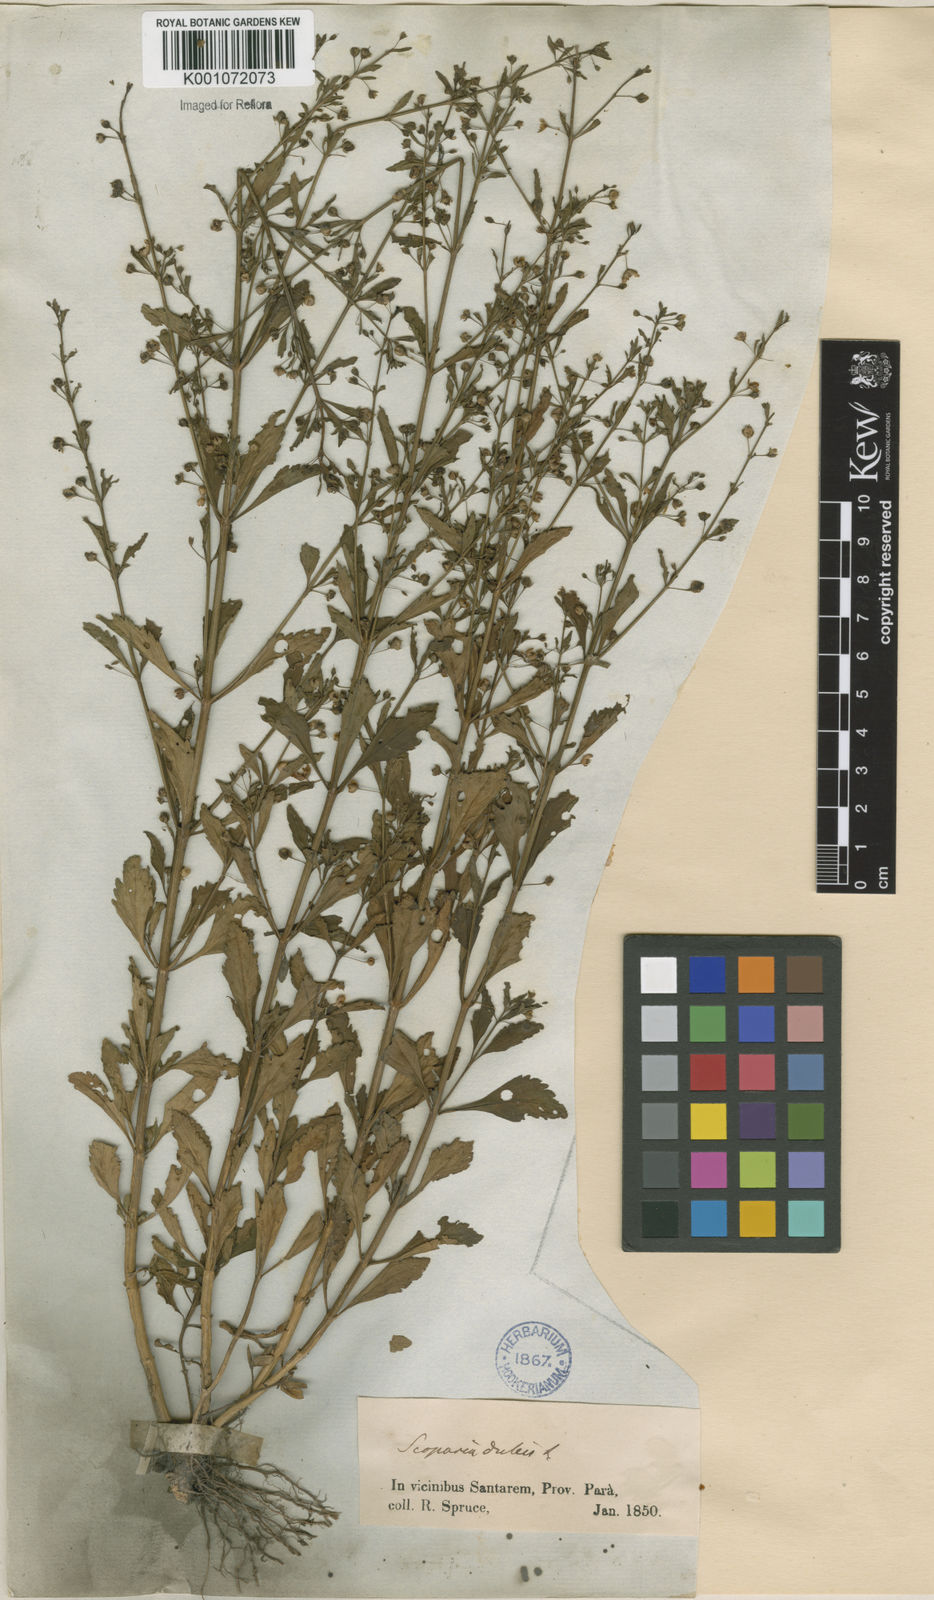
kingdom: Plantae
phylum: Tracheophyta
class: Magnoliopsida
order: Lamiales
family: Plantaginaceae
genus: Scoparia
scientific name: Scoparia dulcis
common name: Scoparia-weed
